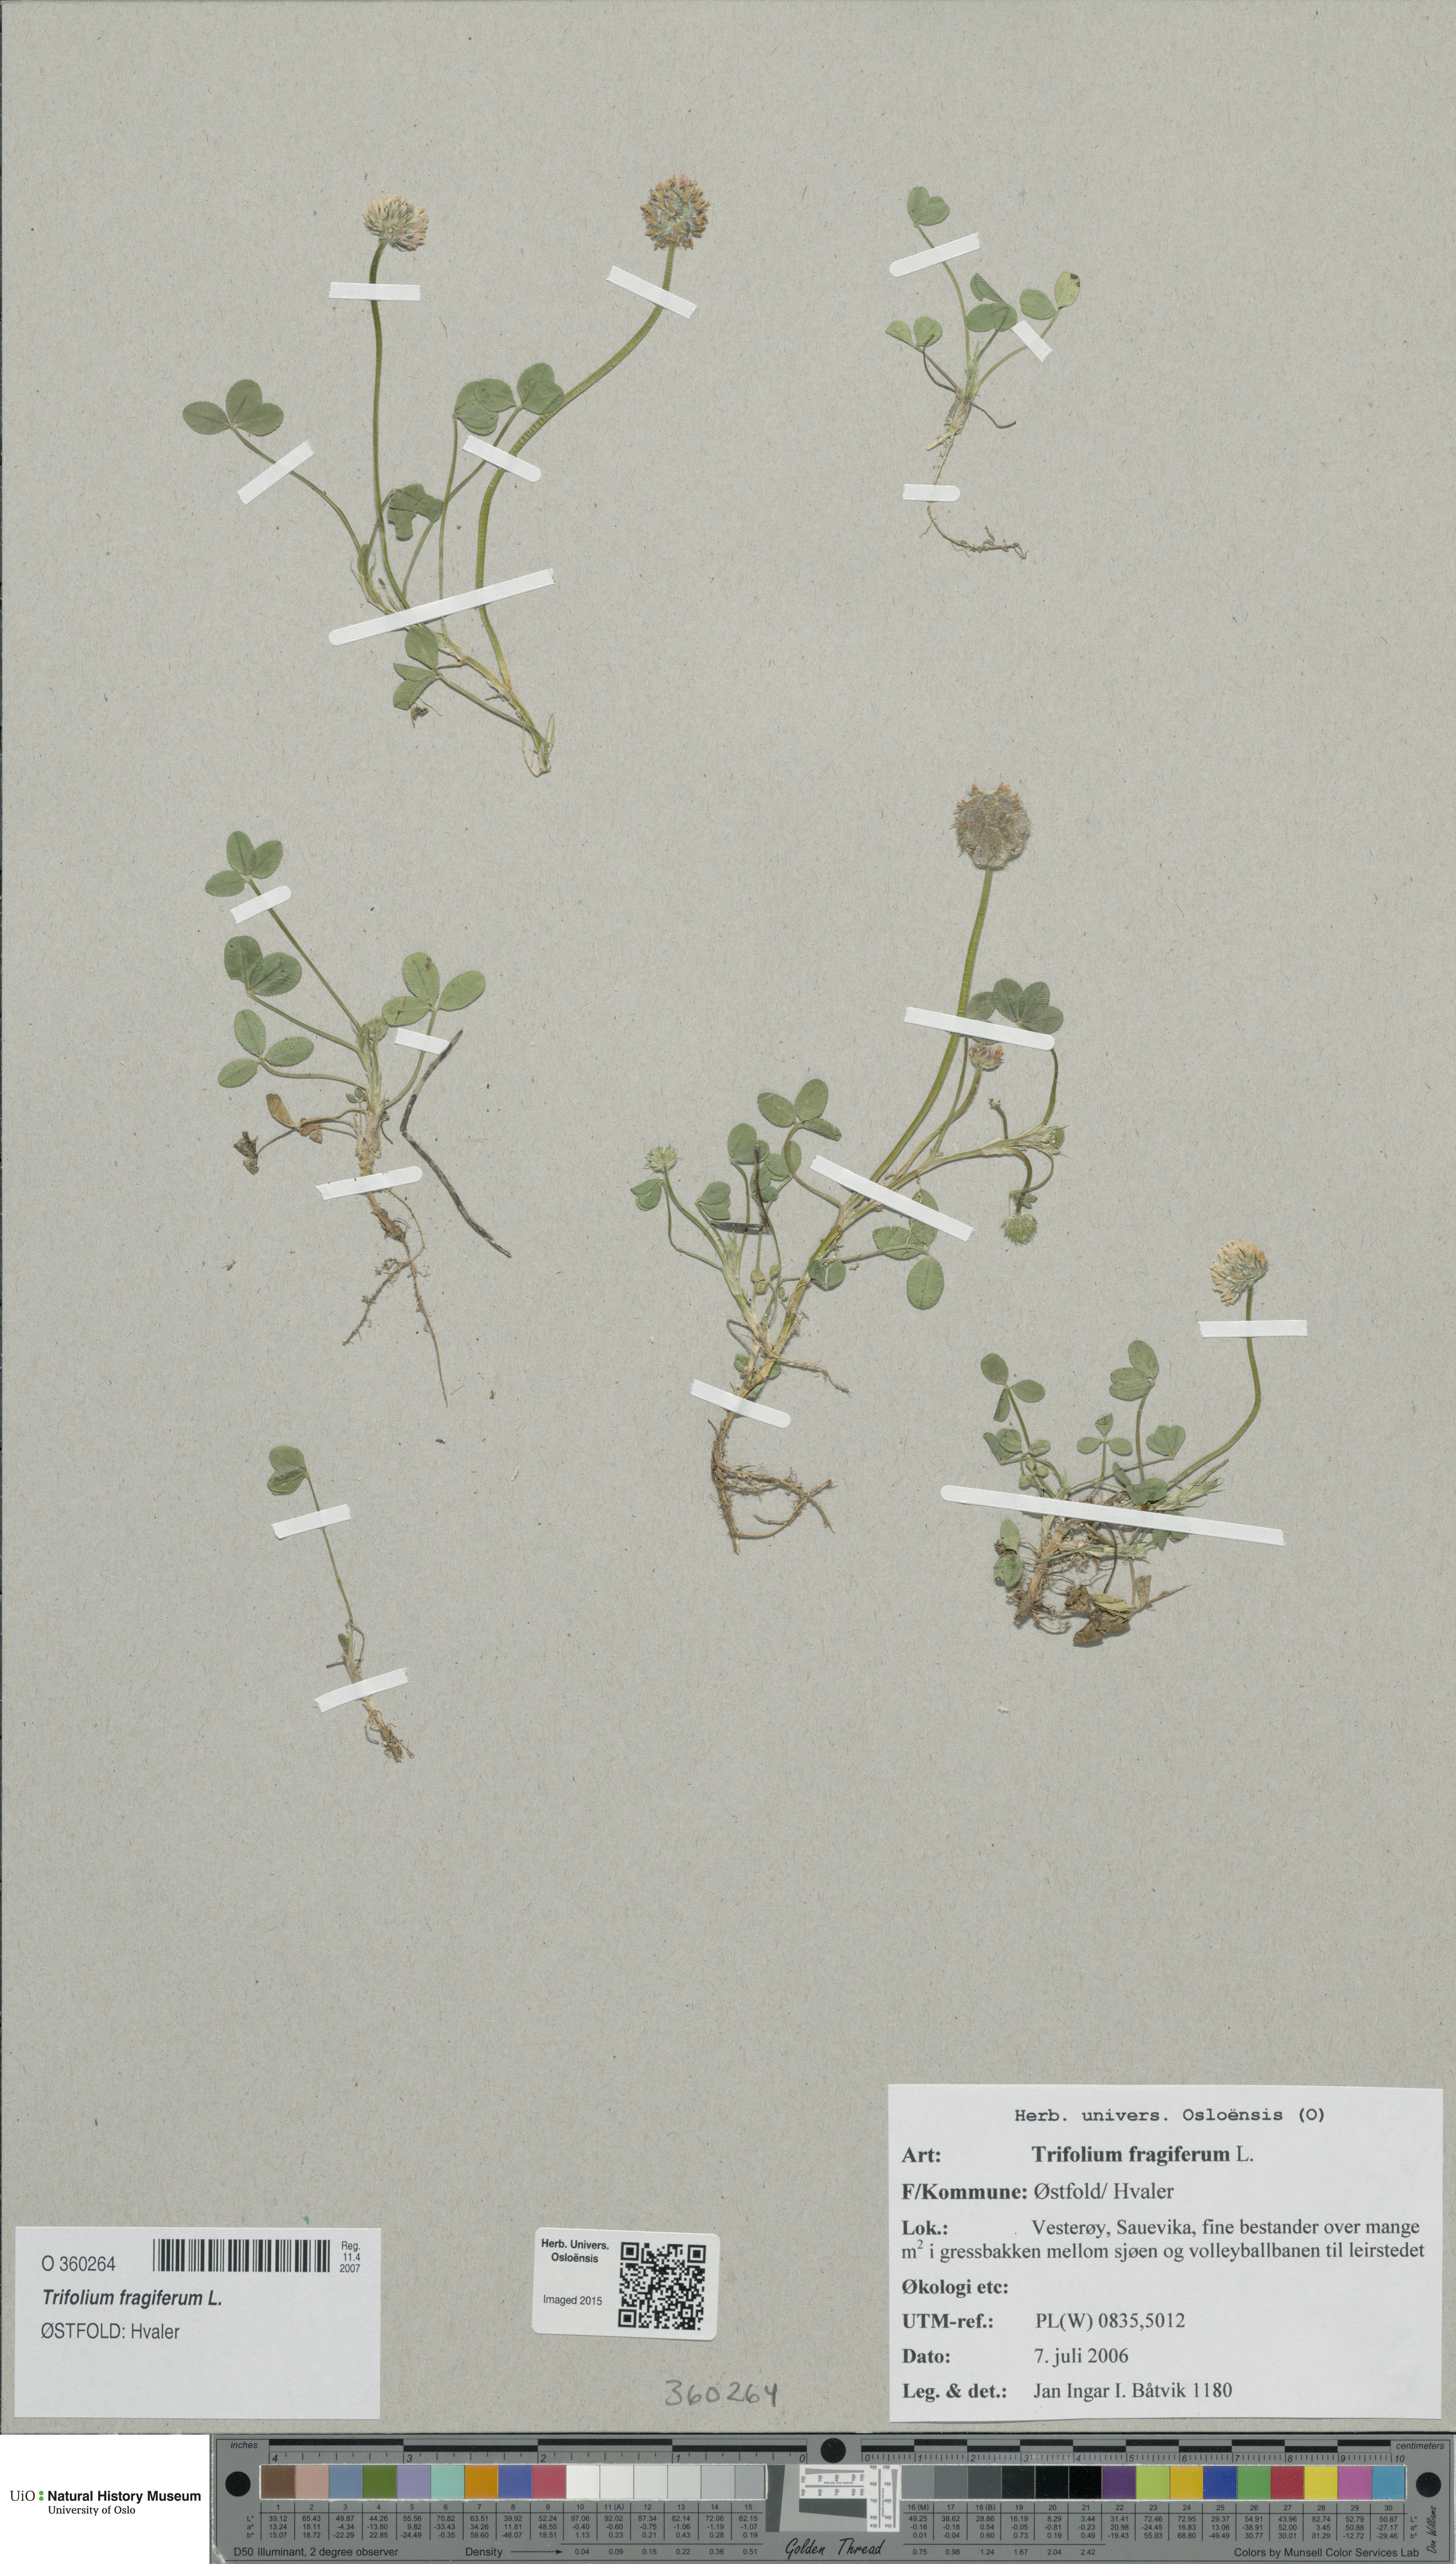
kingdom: Plantae
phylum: Tracheophyta
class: Magnoliopsida
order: Fabales
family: Fabaceae
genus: Trifolium
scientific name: Trifolium fragiferum
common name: Strawberry clover
